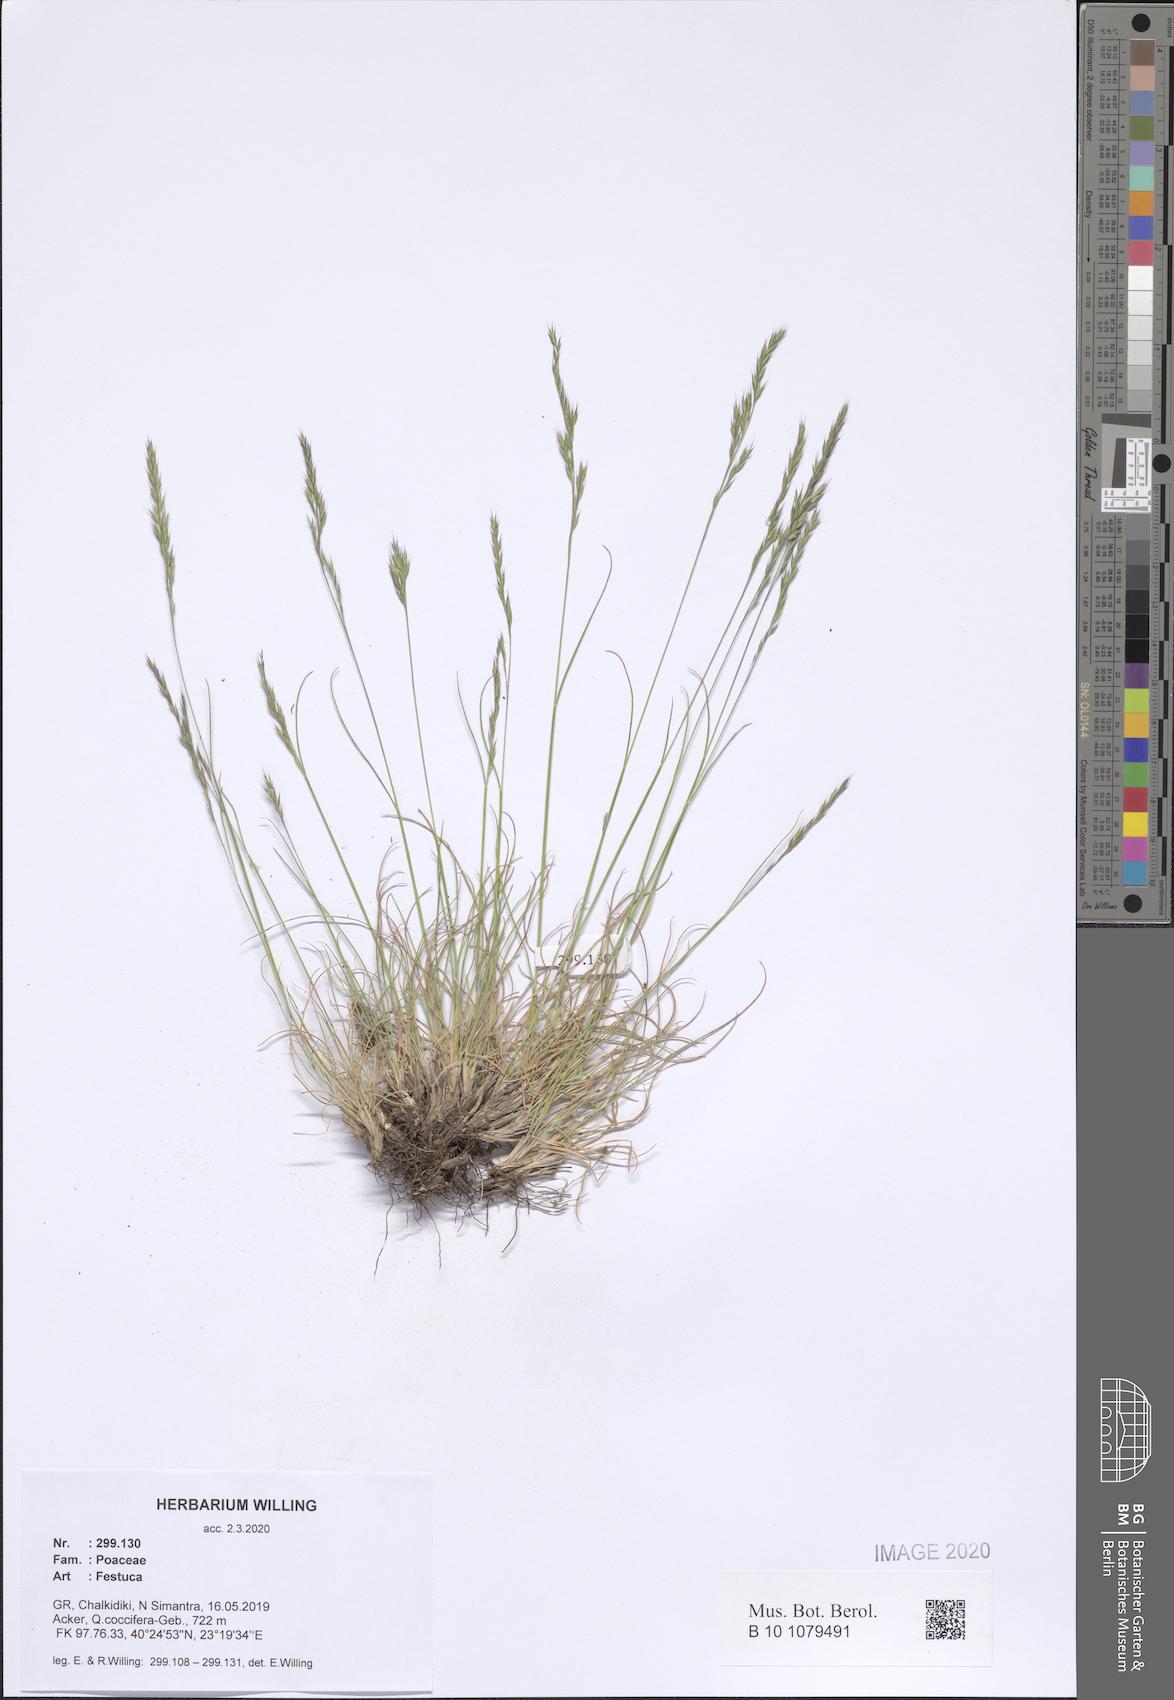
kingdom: Plantae
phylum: Tracheophyta
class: Liliopsida
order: Poales
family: Poaceae
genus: Festuca
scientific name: Festuca
